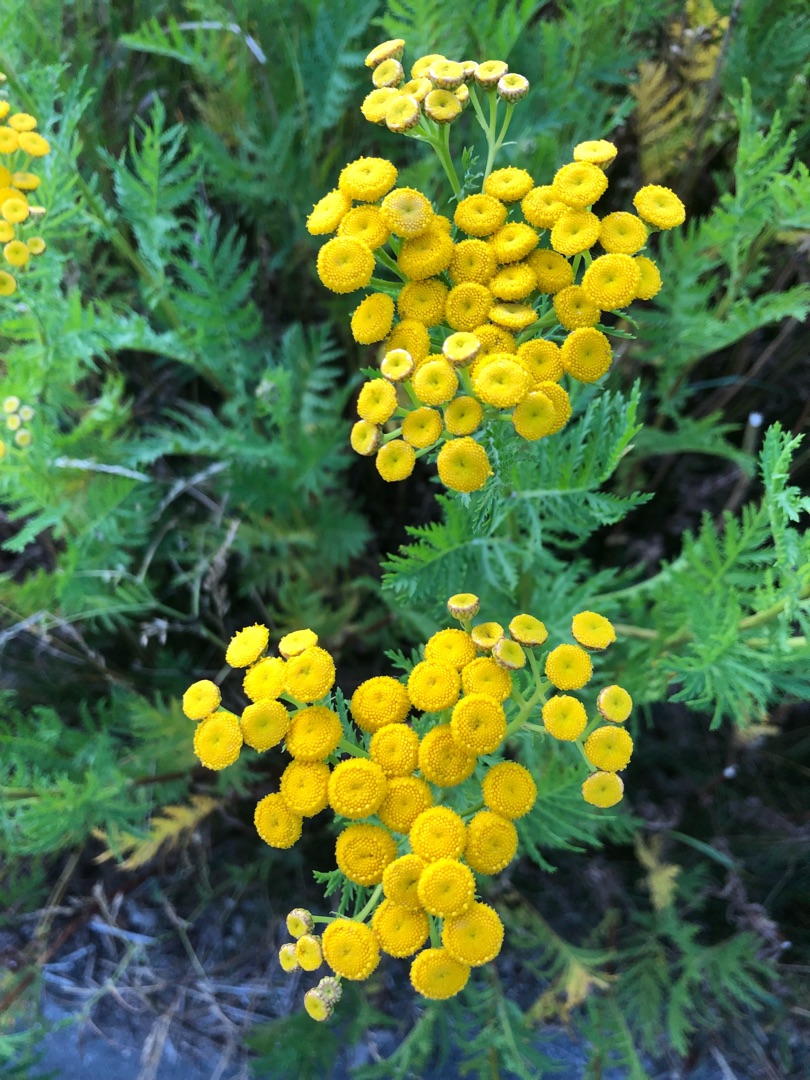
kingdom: Plantae
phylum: Tracheophyta
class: Magnoliopsida
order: Asterales
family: Asteraceae
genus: Tanacetum
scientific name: Tanacetum vulgare
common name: Rejnfan
